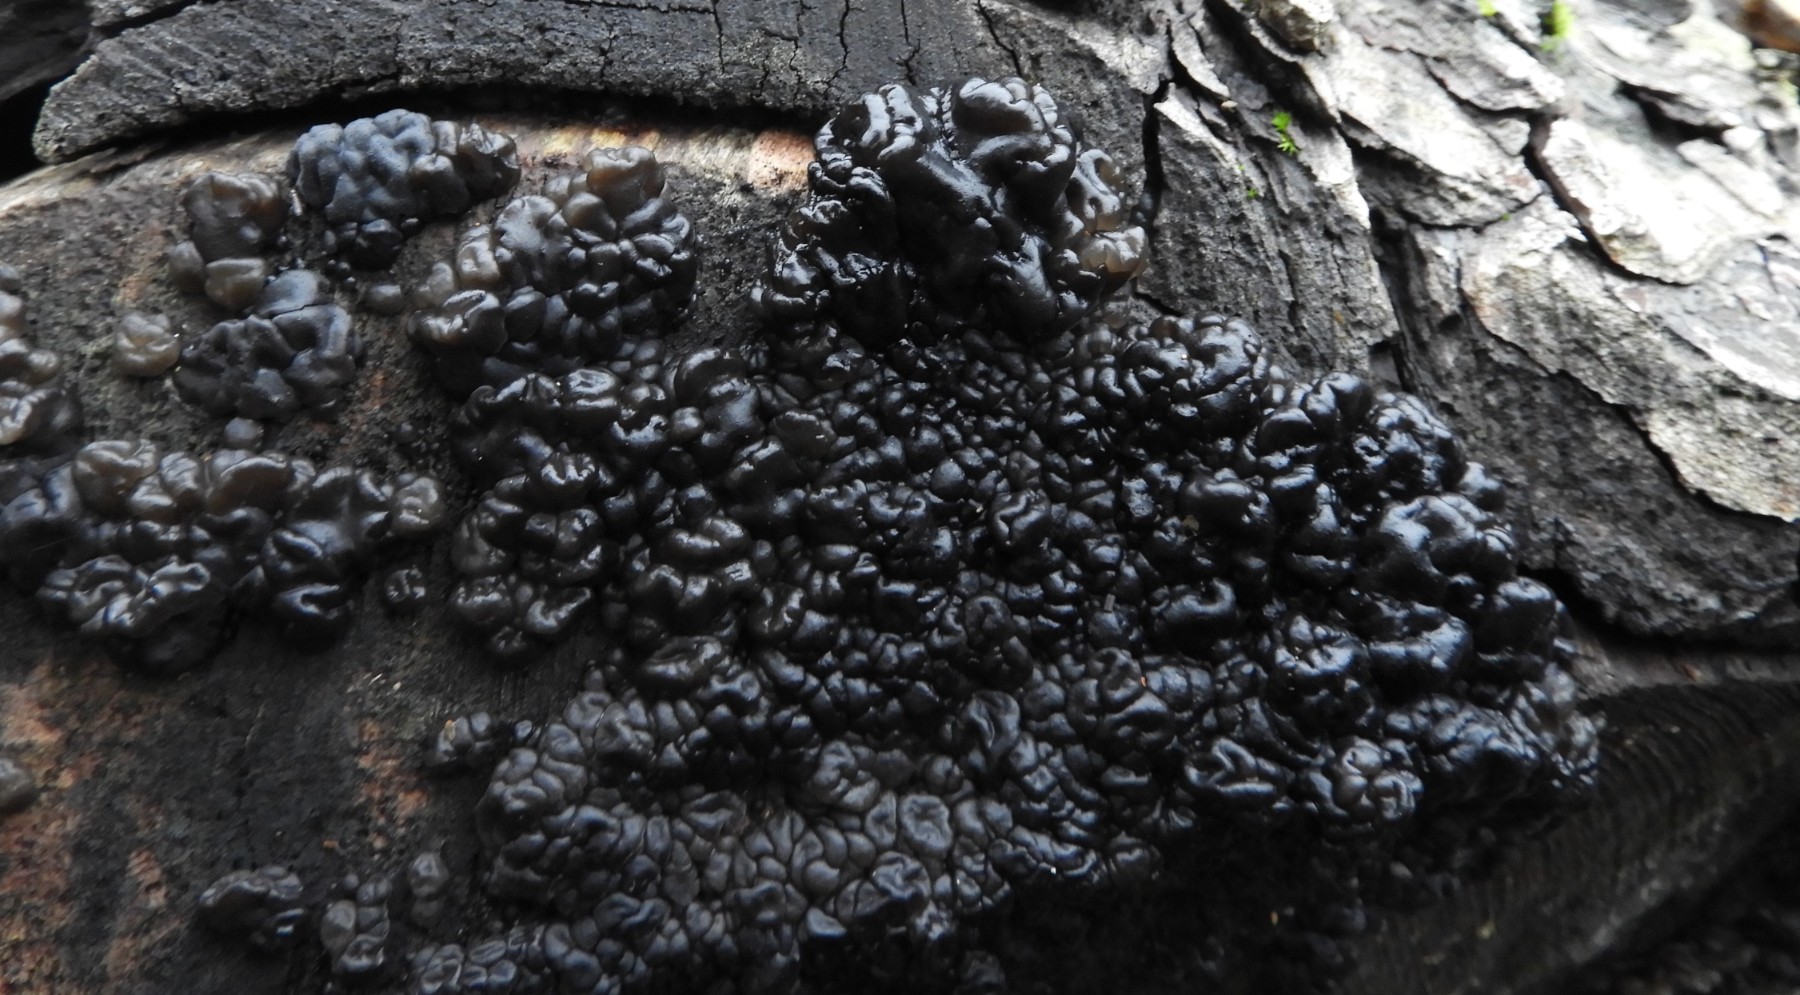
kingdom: Fungi
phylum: Basidiomycota
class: Agaricomycetes
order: Auriculariales
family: Auriculariaceae
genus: Exidia
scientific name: Exidia nigricans
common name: almindelig bævretop
